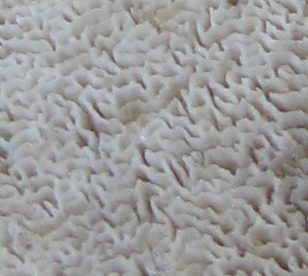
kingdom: Fungi
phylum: Basidiomycota
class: Agaricomycetes
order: Hymenochaetales
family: Schizoporaceae
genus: Xylodon
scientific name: Xylodon subtropicus
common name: labyrint-tandsvamp
